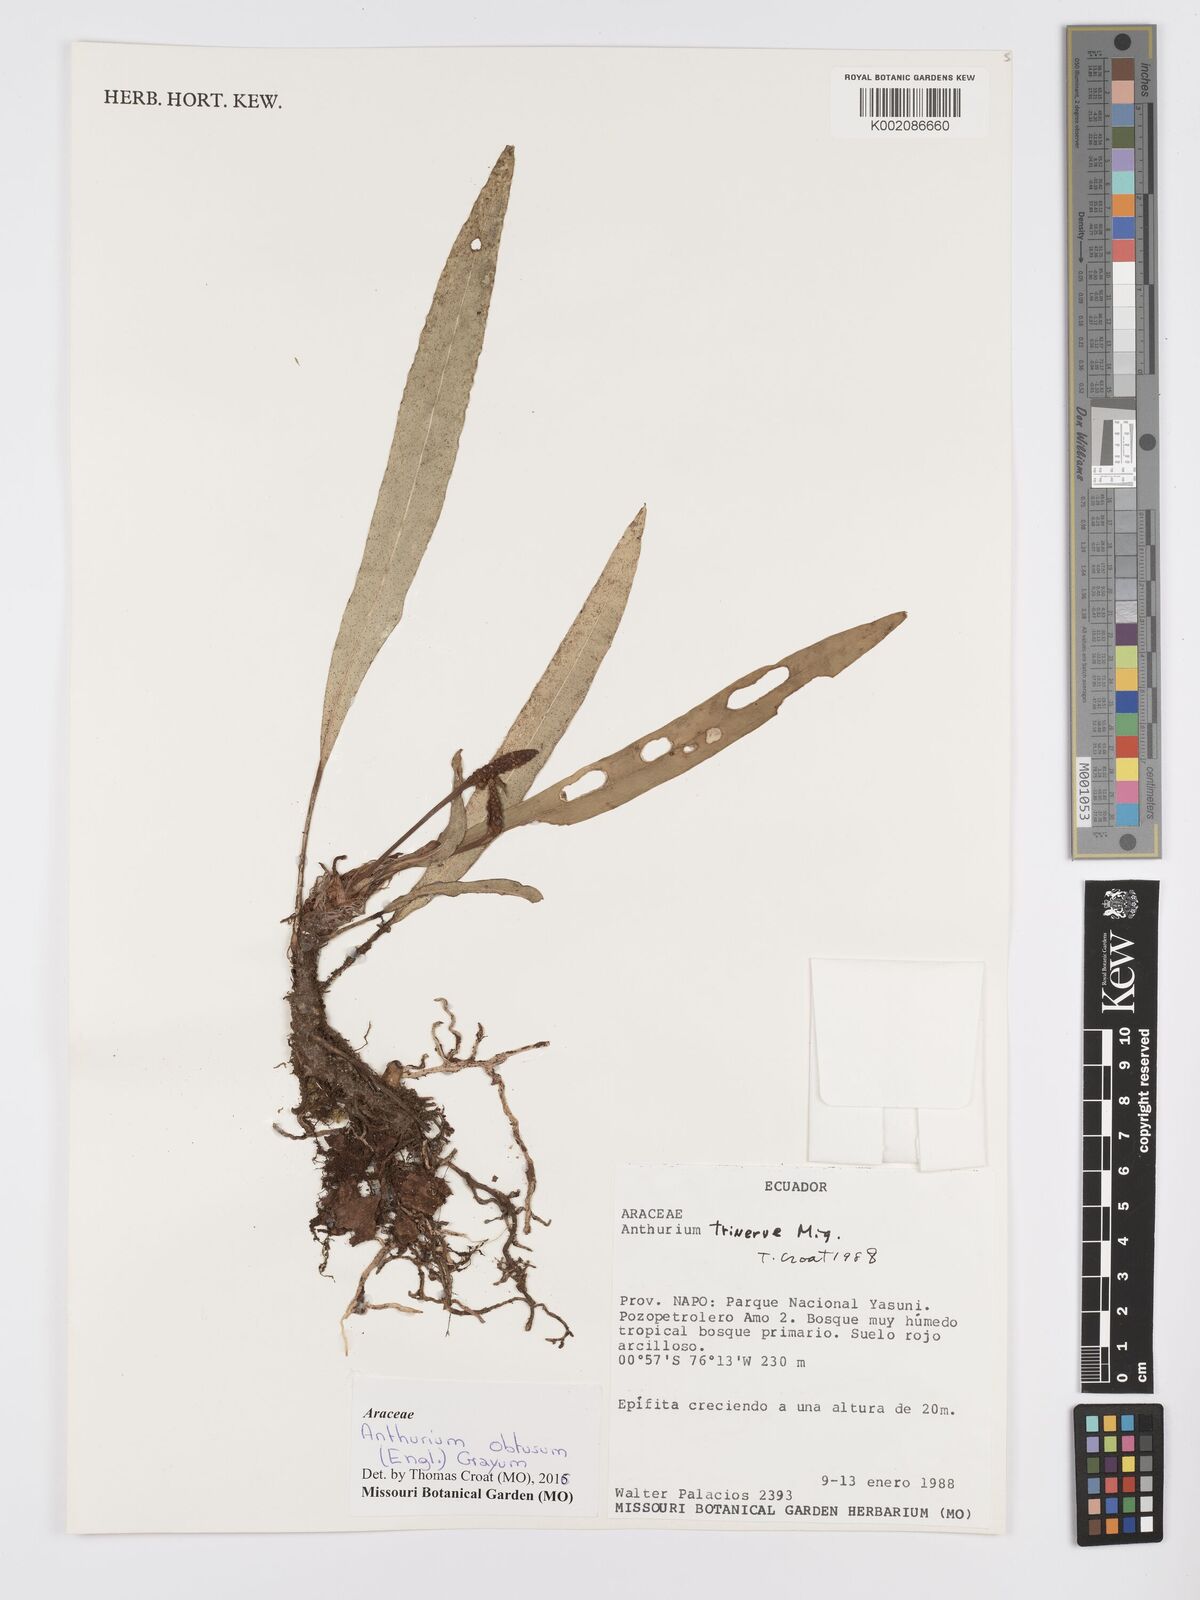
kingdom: Plantae
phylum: Tracheophyta
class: Liliopsida
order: Alismatales
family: Araceae
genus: Anthurium
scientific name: Anthurium obtusum
